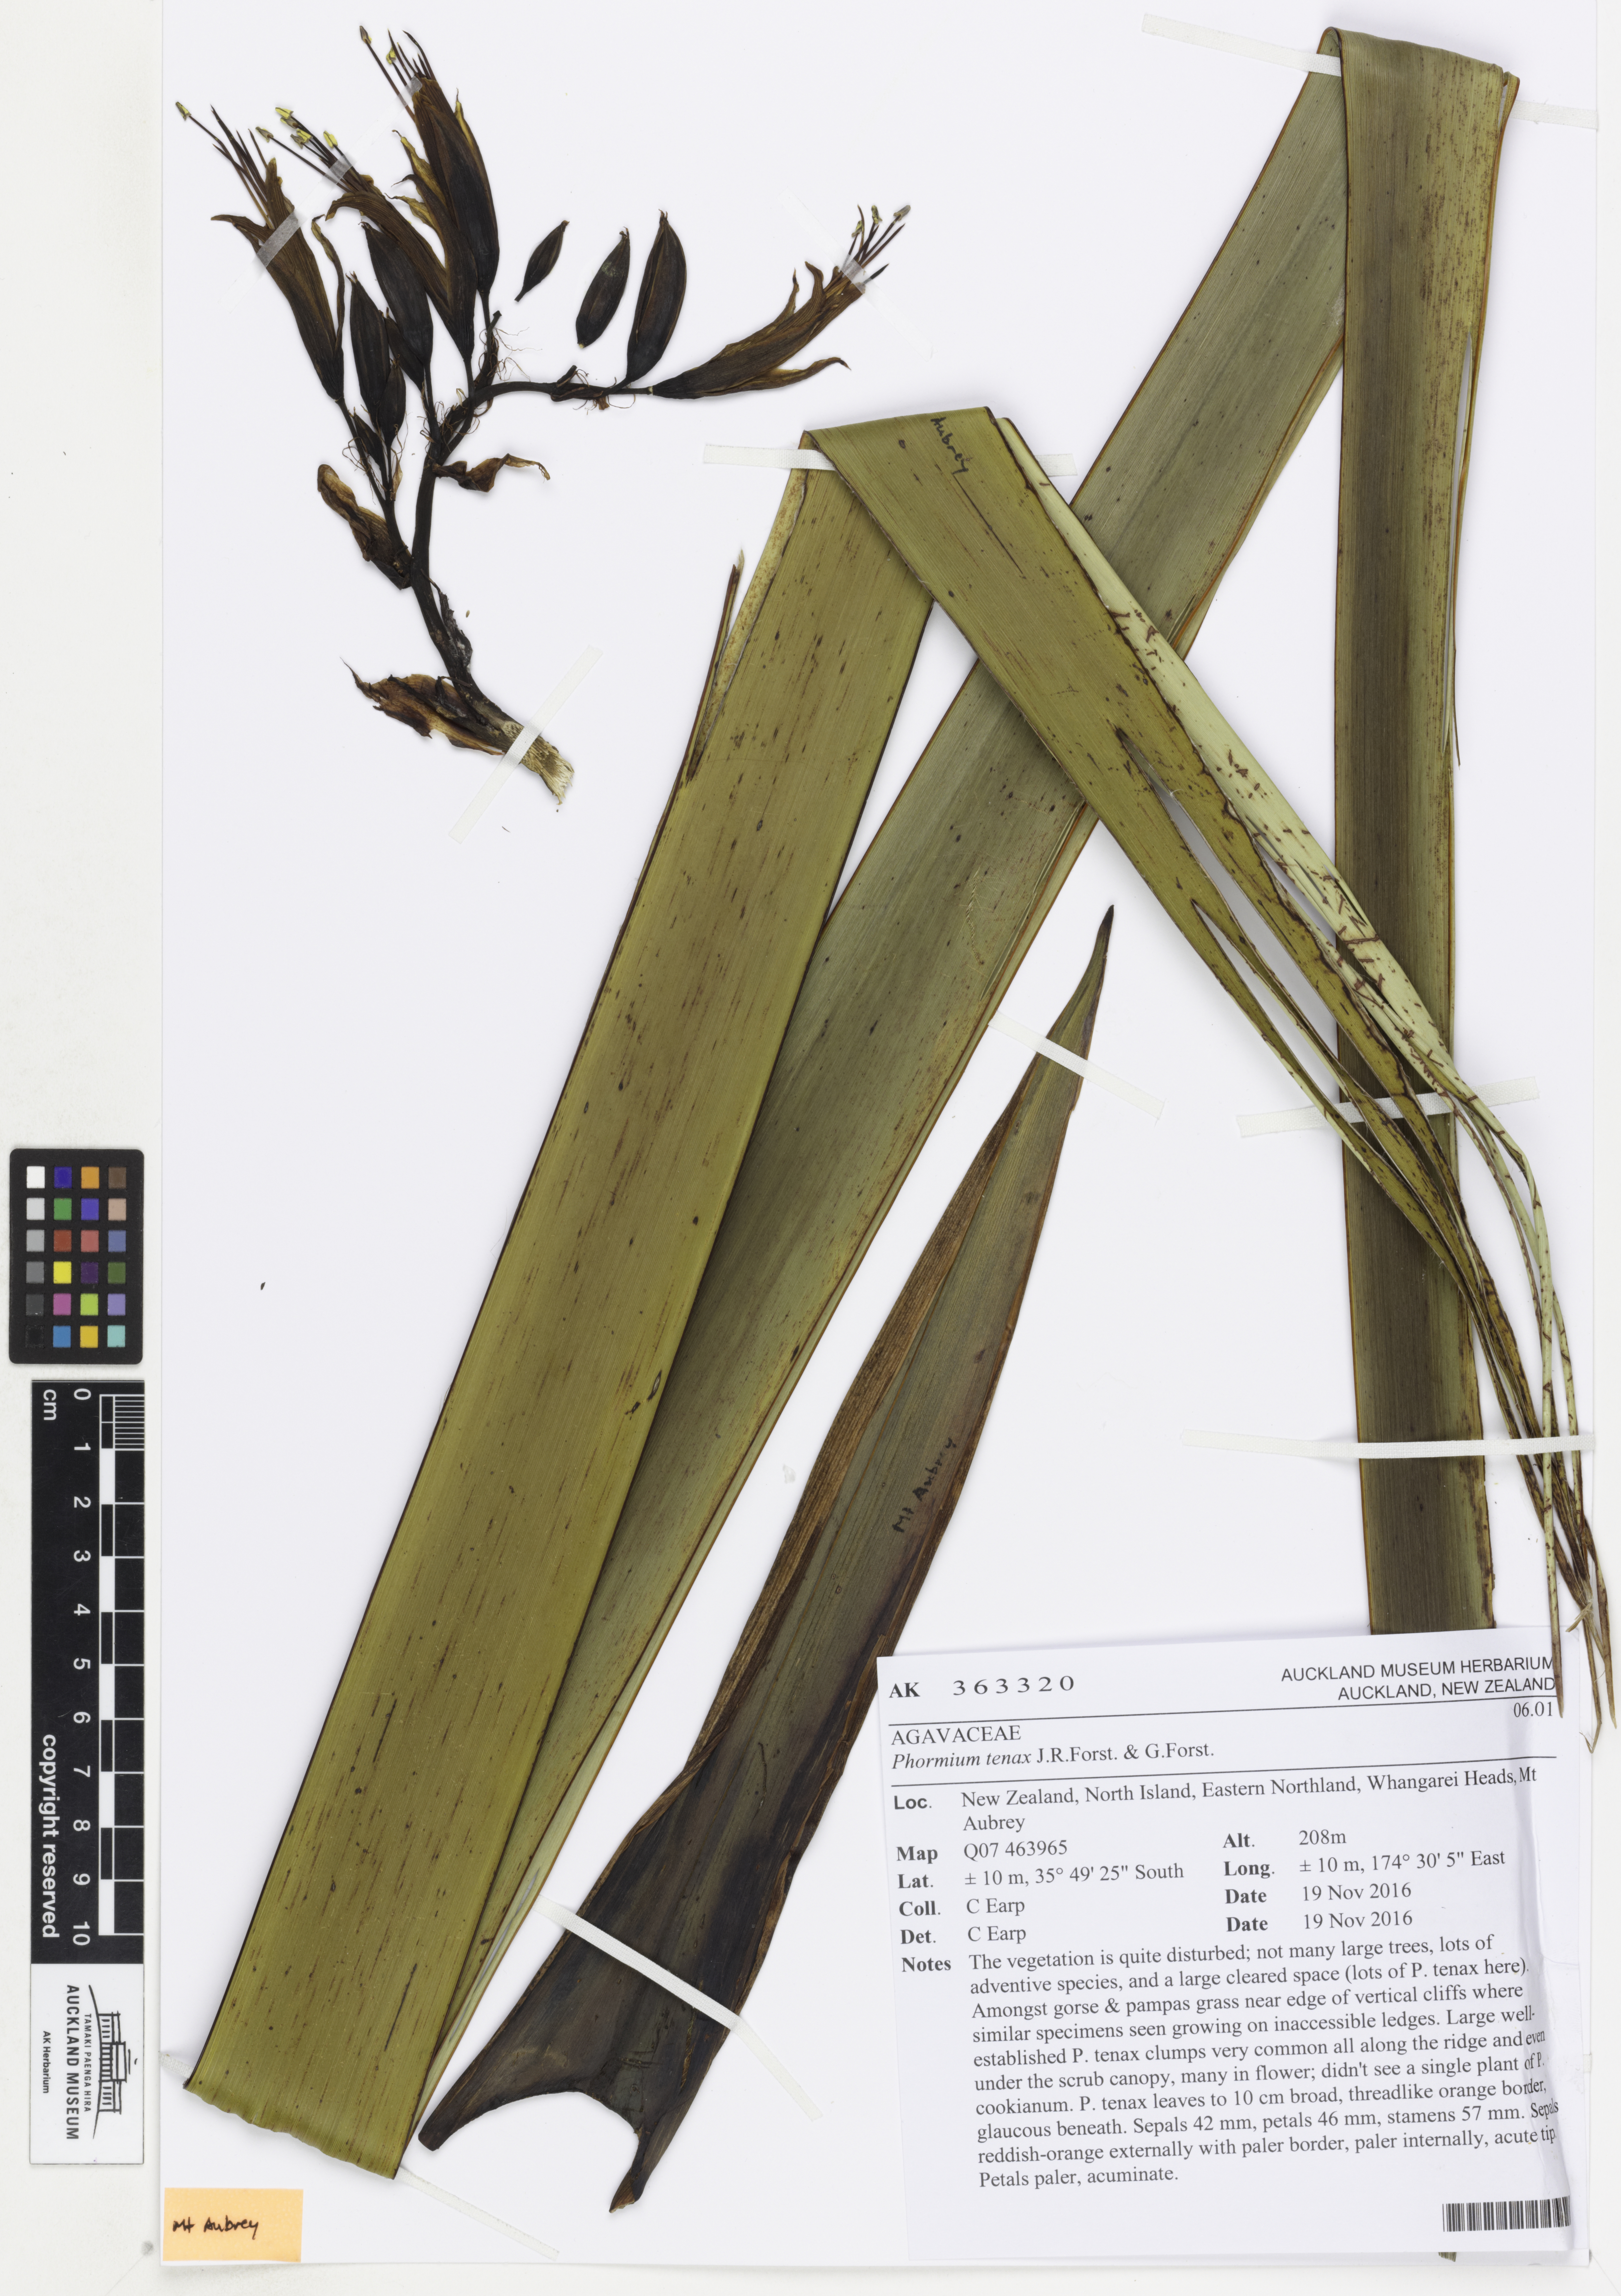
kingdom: Plantae
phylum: Tracheophyta
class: Liliopsida
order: Asparagales
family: Asphodelaceae
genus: Phormium
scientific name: Phormium tenax
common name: New zealand flax
